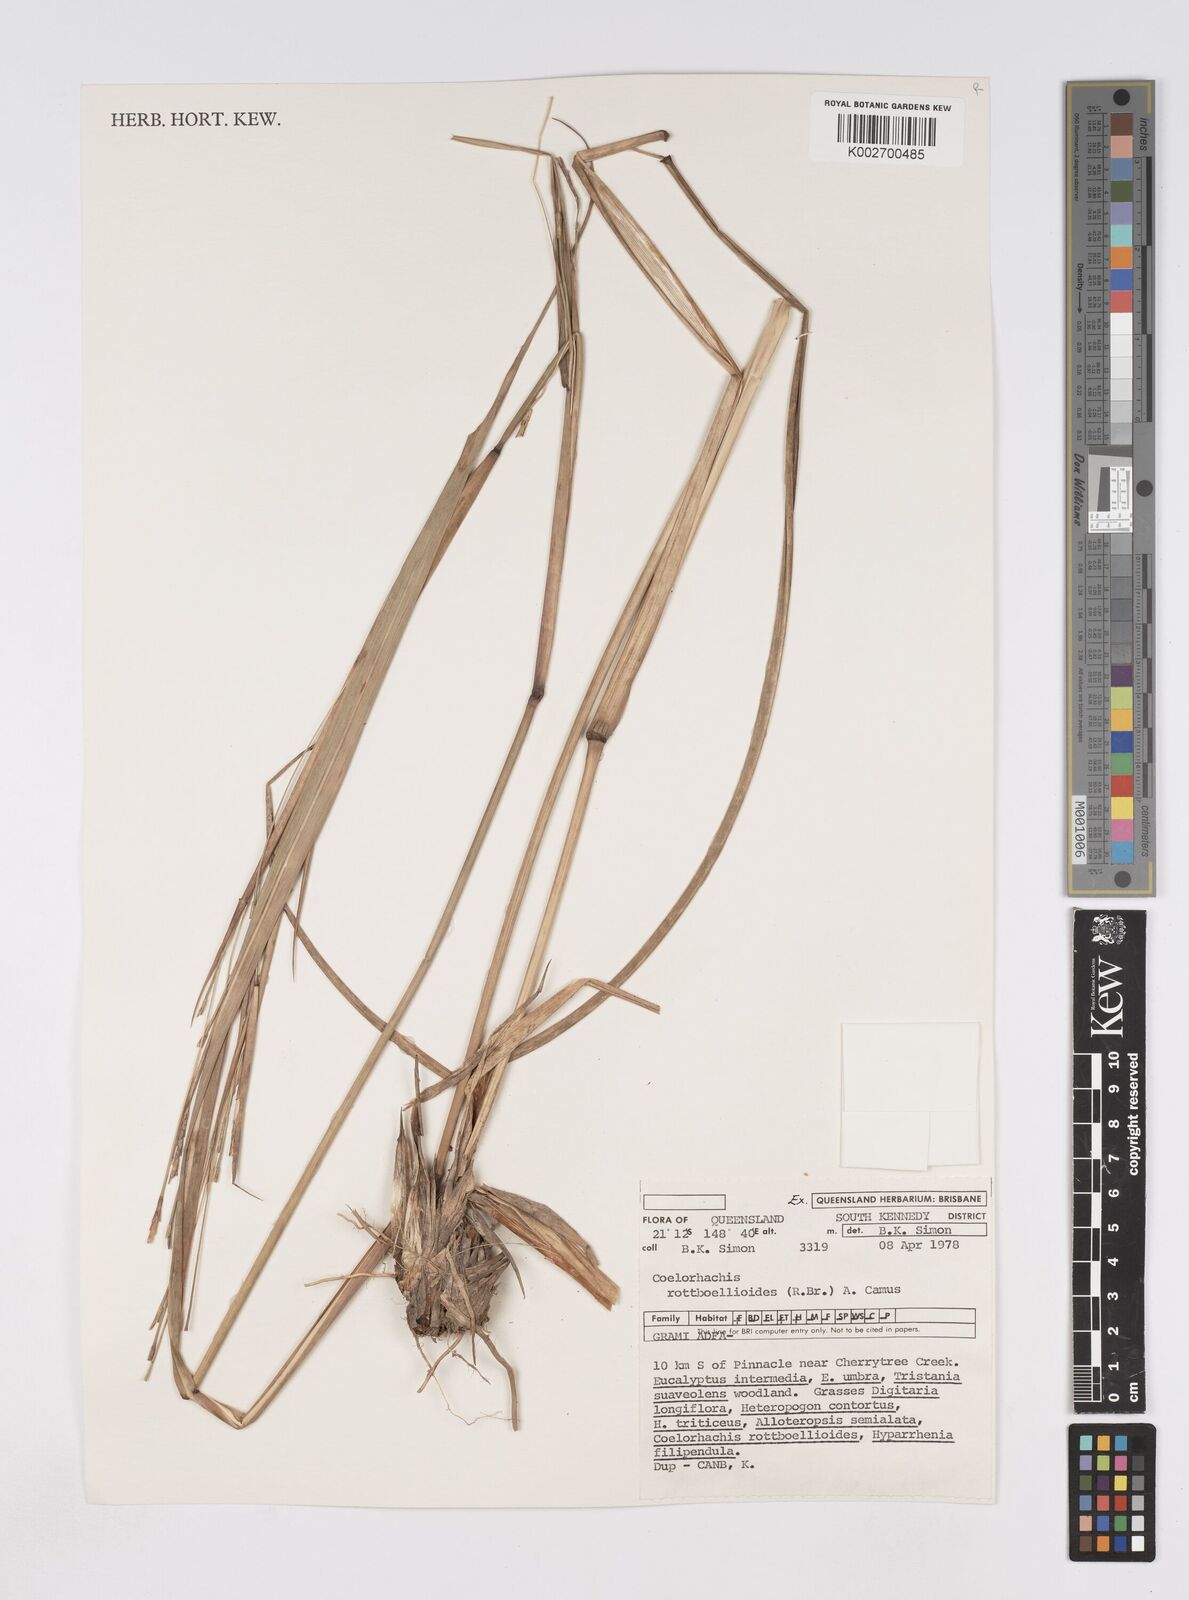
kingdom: Plantae
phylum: Tracheophyta
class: Liliopsida
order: Poales
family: Poaceae
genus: Rottboellia
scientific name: Rottboellia rottboellioides
